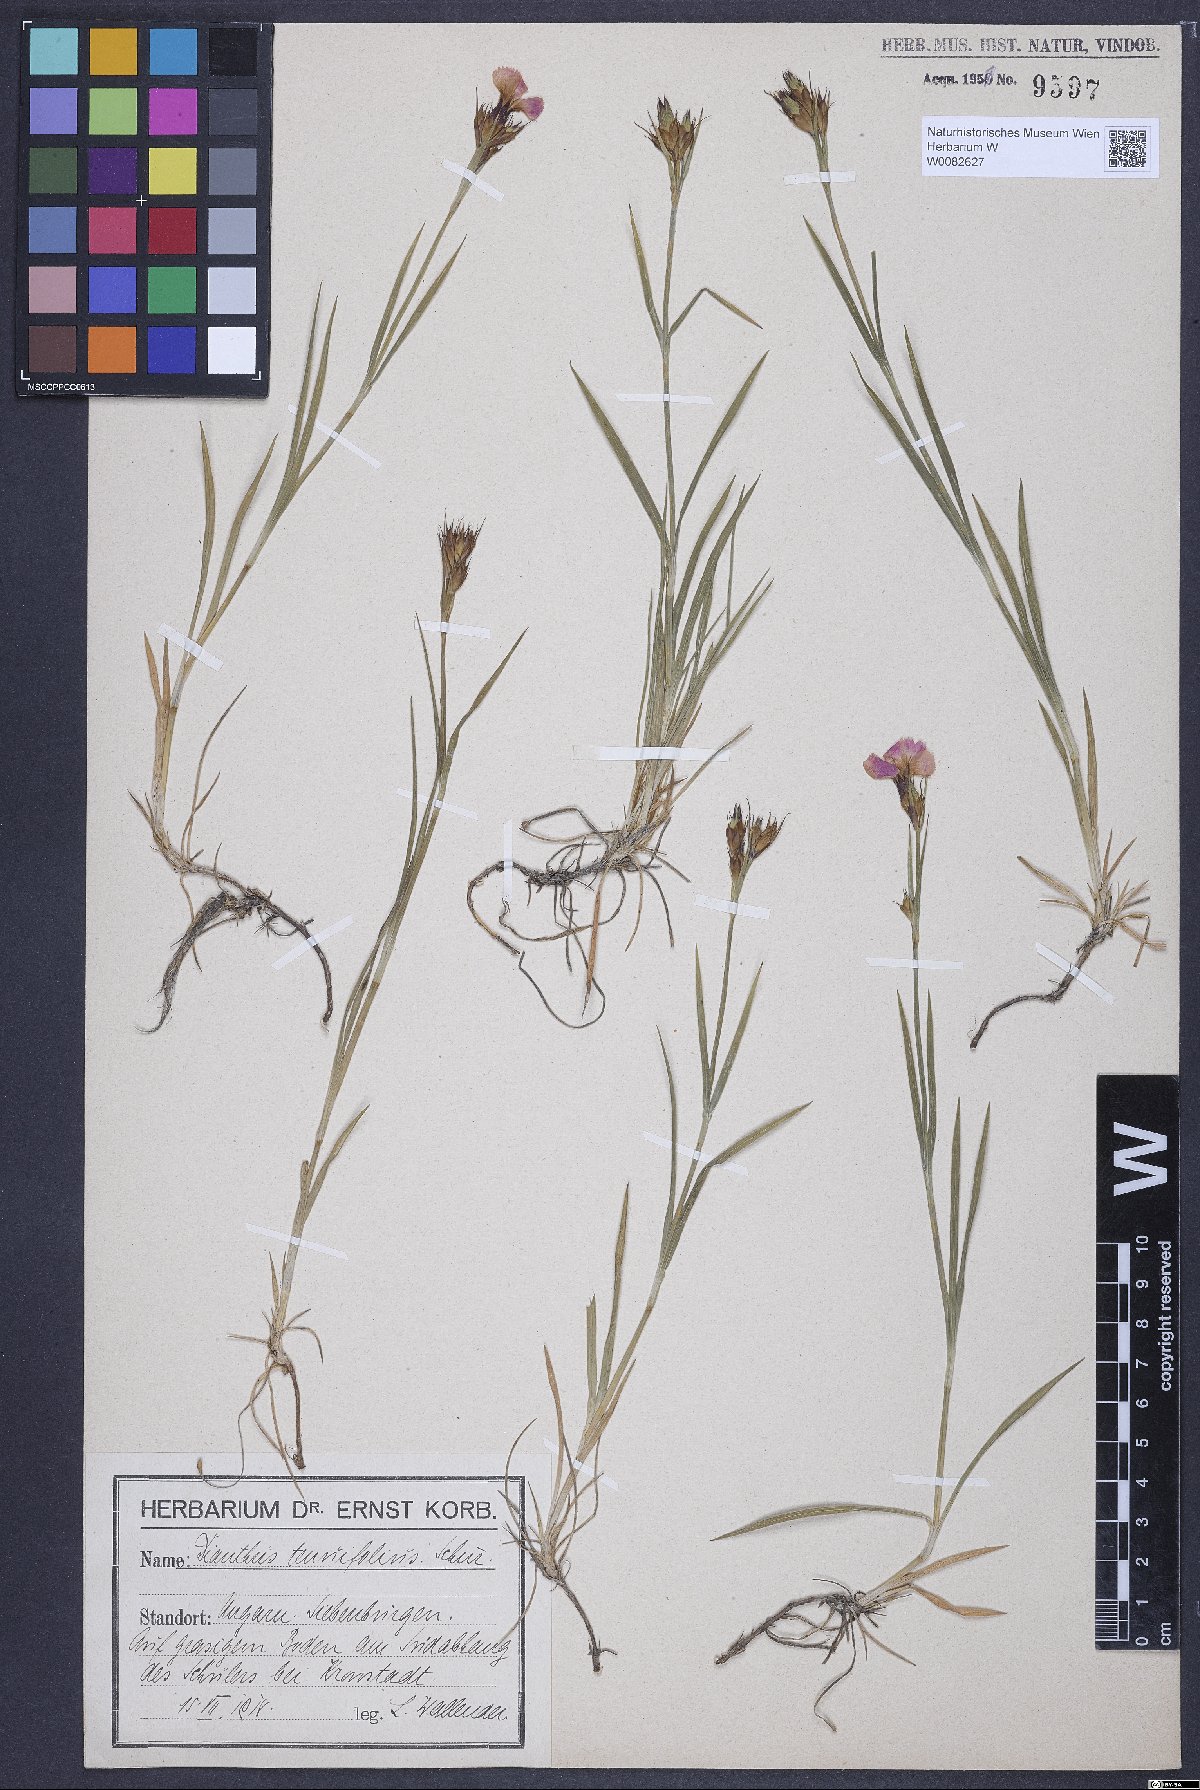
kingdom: Plantae
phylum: Tracheophyta
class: Magnoliopsida
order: Caryophyllales
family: Caryophyllaceae
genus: Dianthus
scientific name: Dianthus carthusianorum
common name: Carthusian pink
